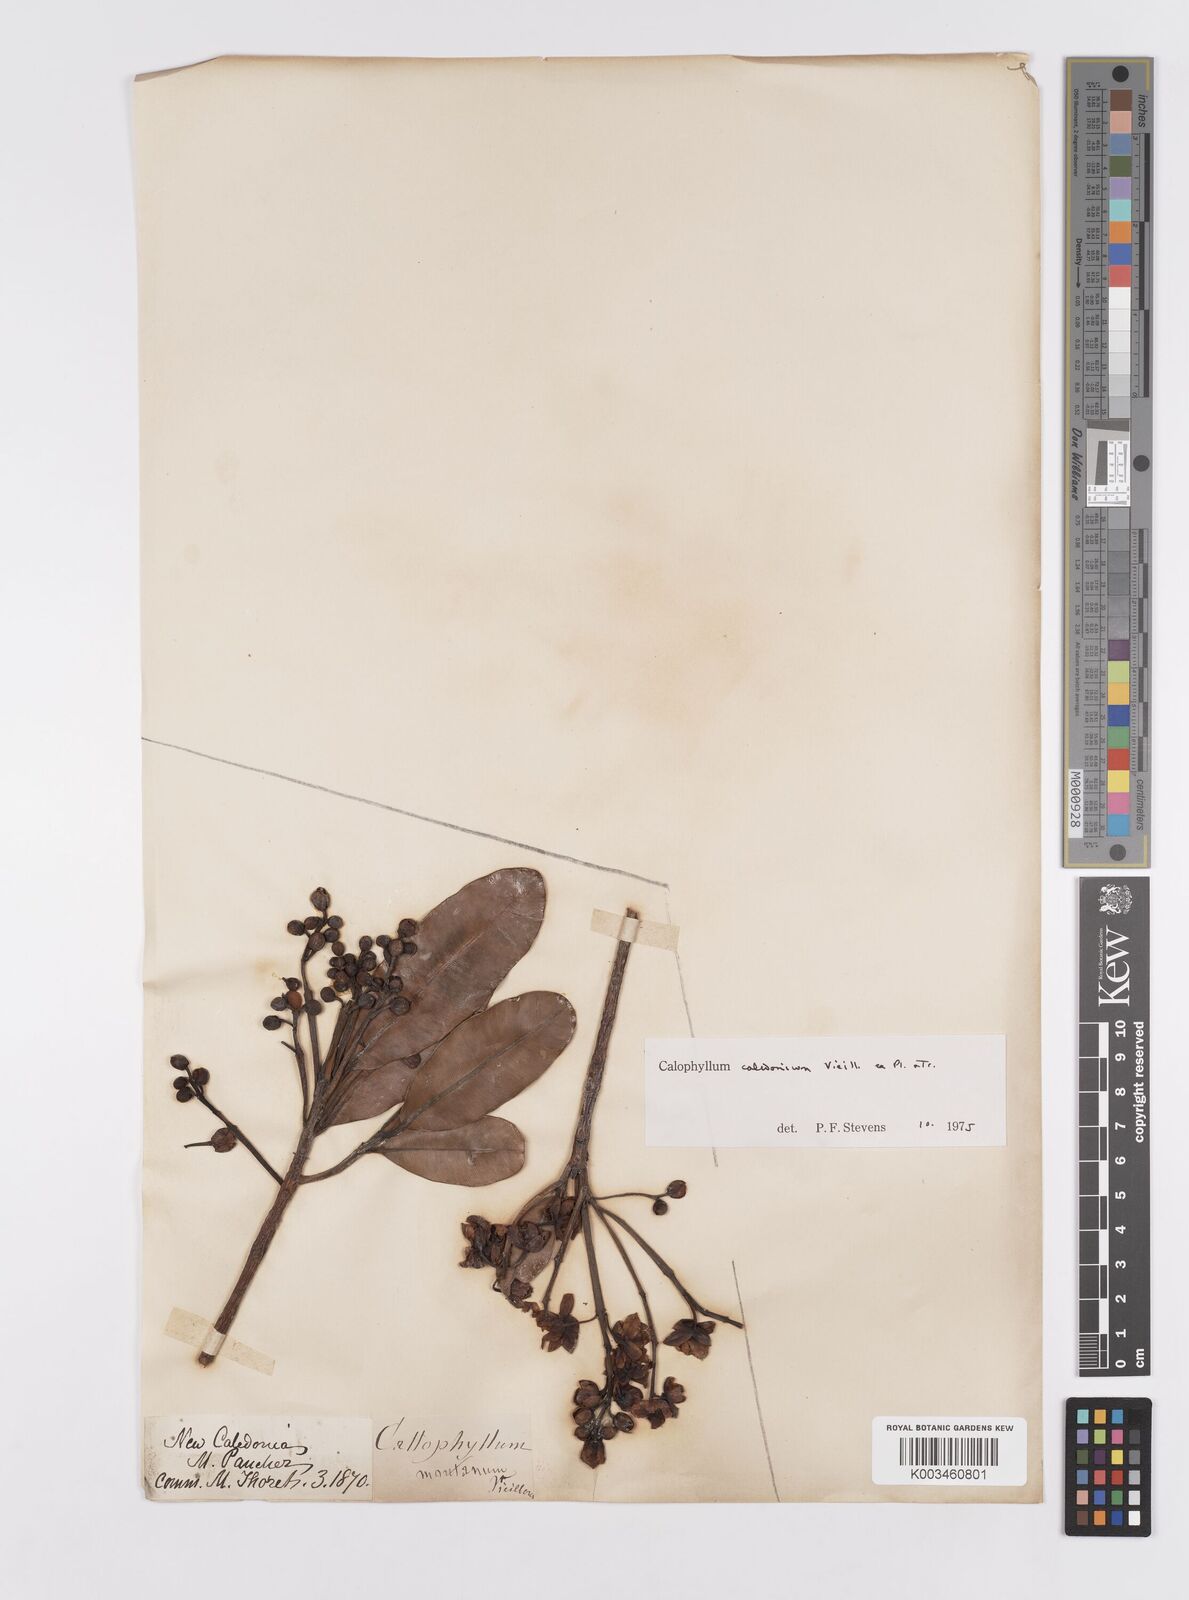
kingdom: Plantae
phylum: Tracheophyta
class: Magnoliopsida
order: Malpighiales
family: Calophyllaceae
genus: Calophyllum
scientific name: Calophyllum caledonicum
